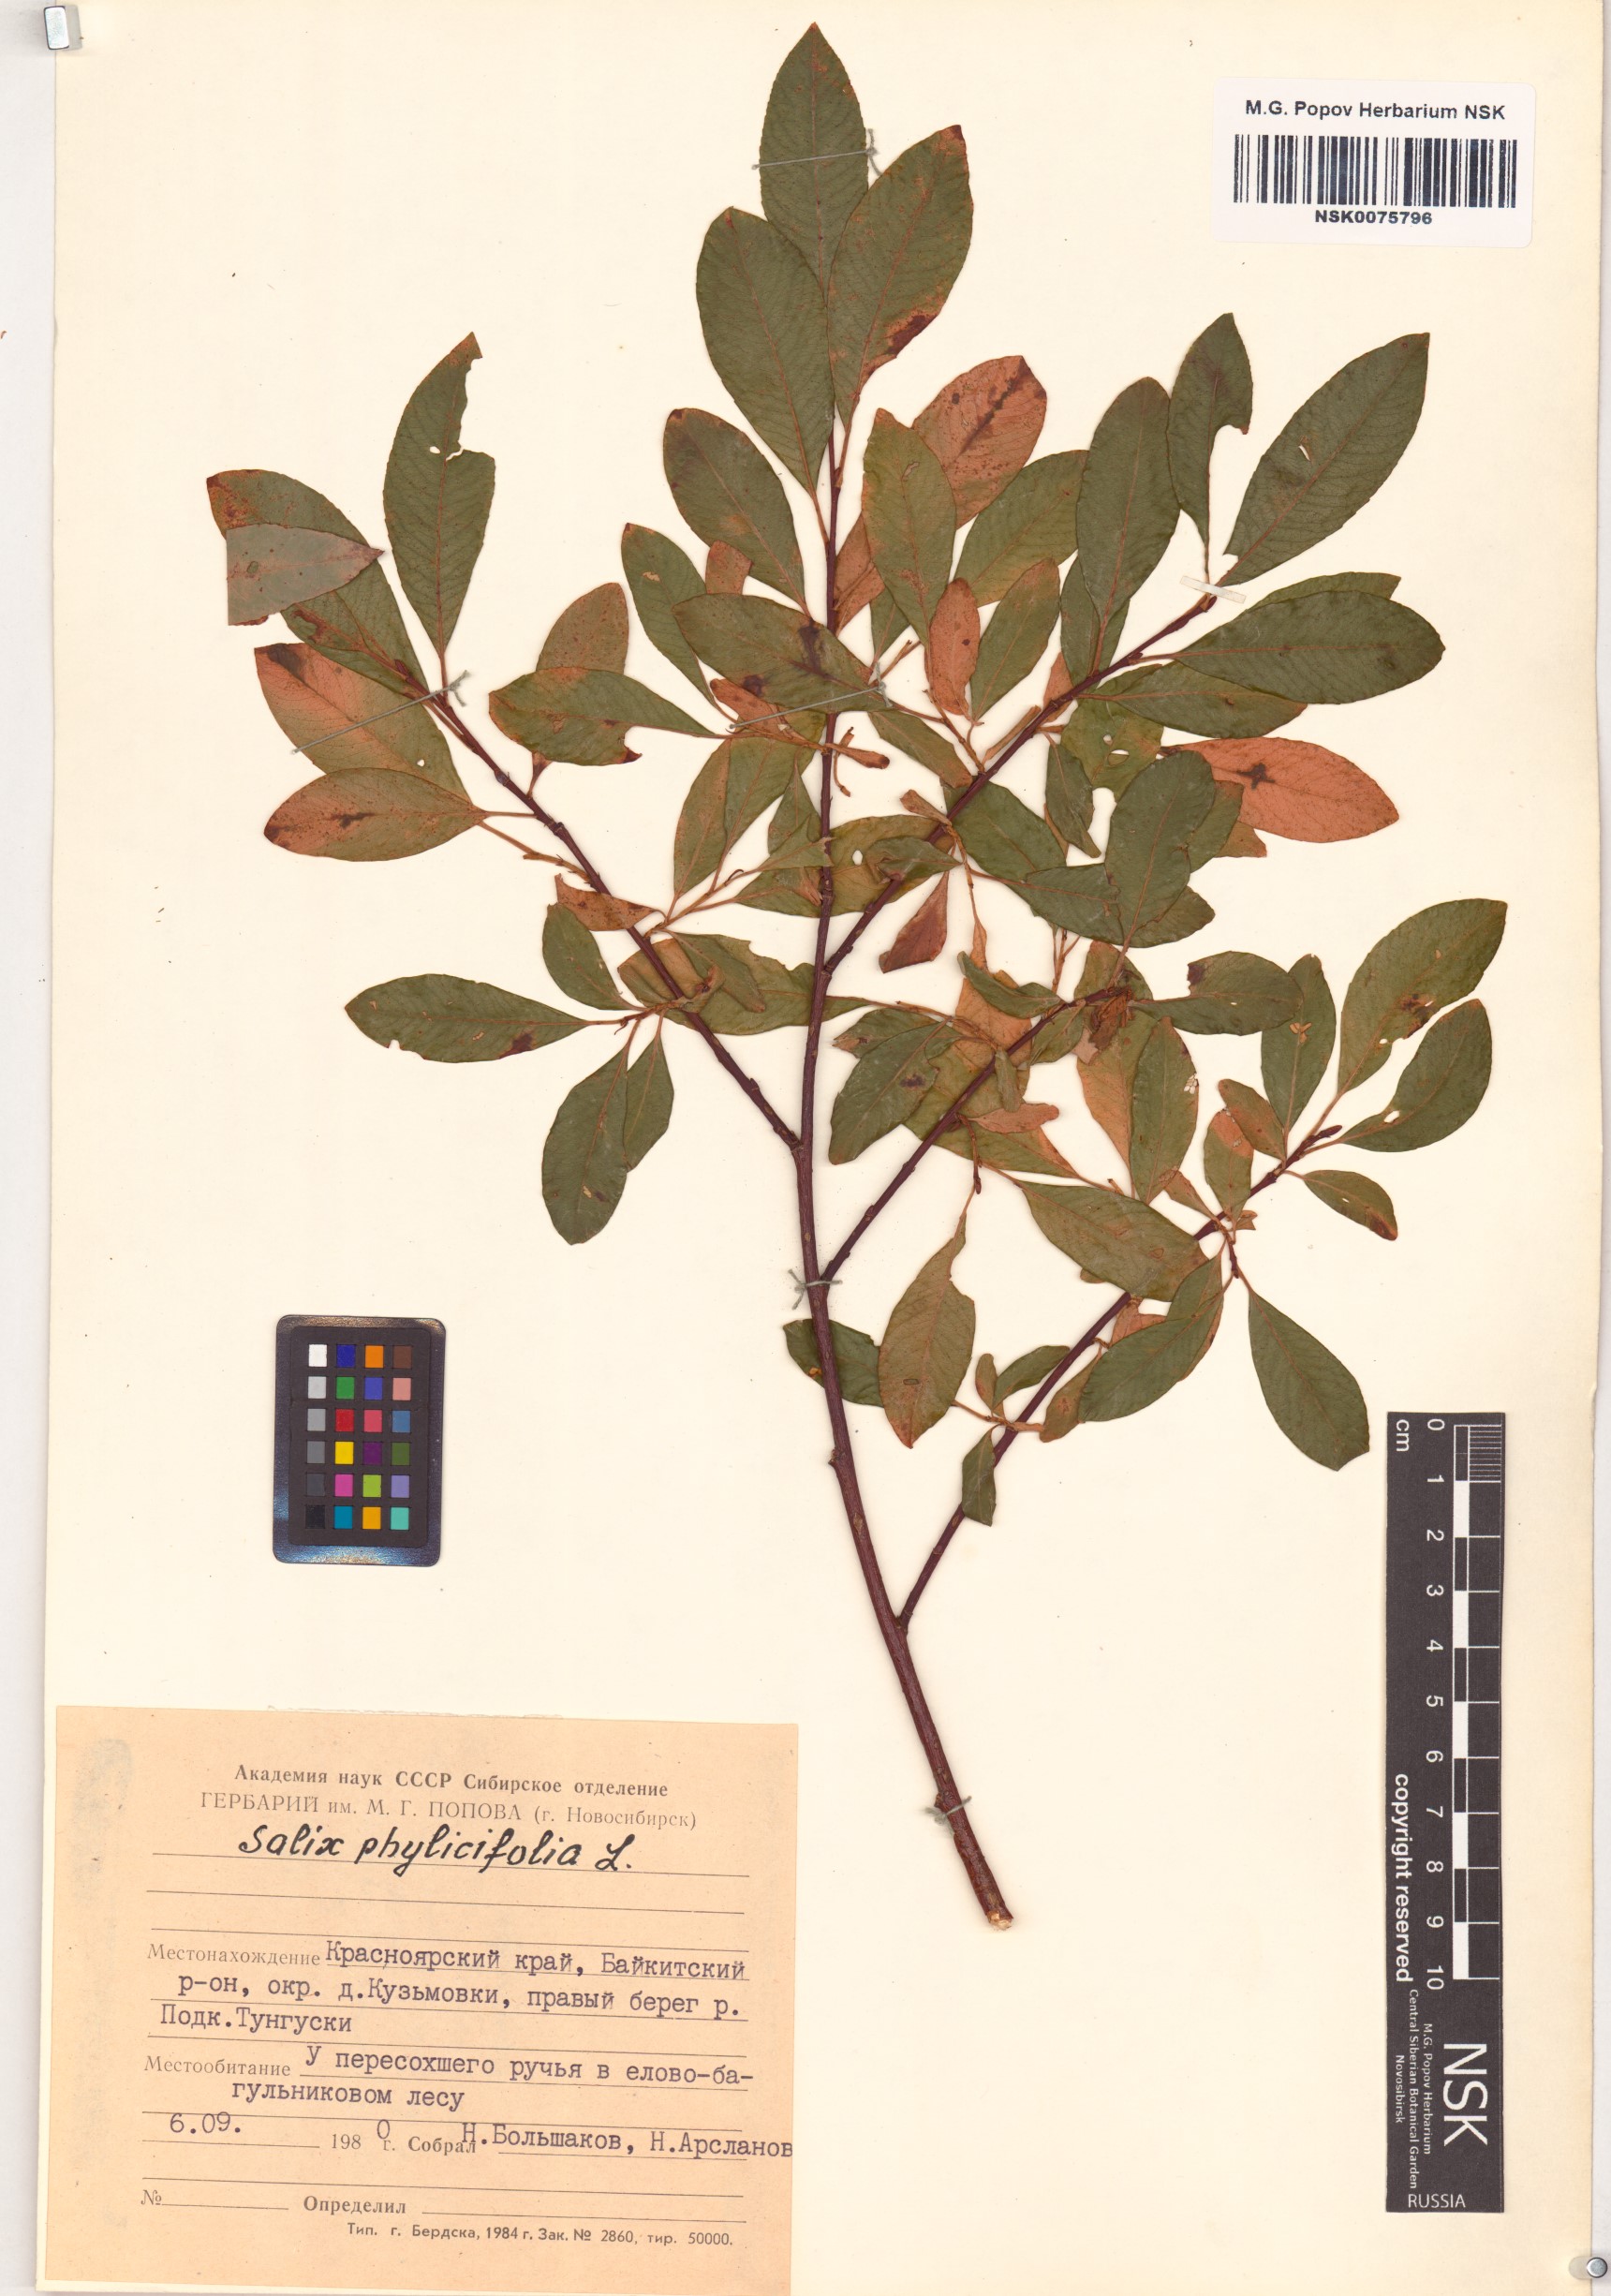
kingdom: Plantae
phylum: Tracheophyta
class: Magnoliopsida
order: Malpighiales
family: Salicaceae
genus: Salix
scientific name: Salix phylicifolia
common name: Tea-leaved willow
